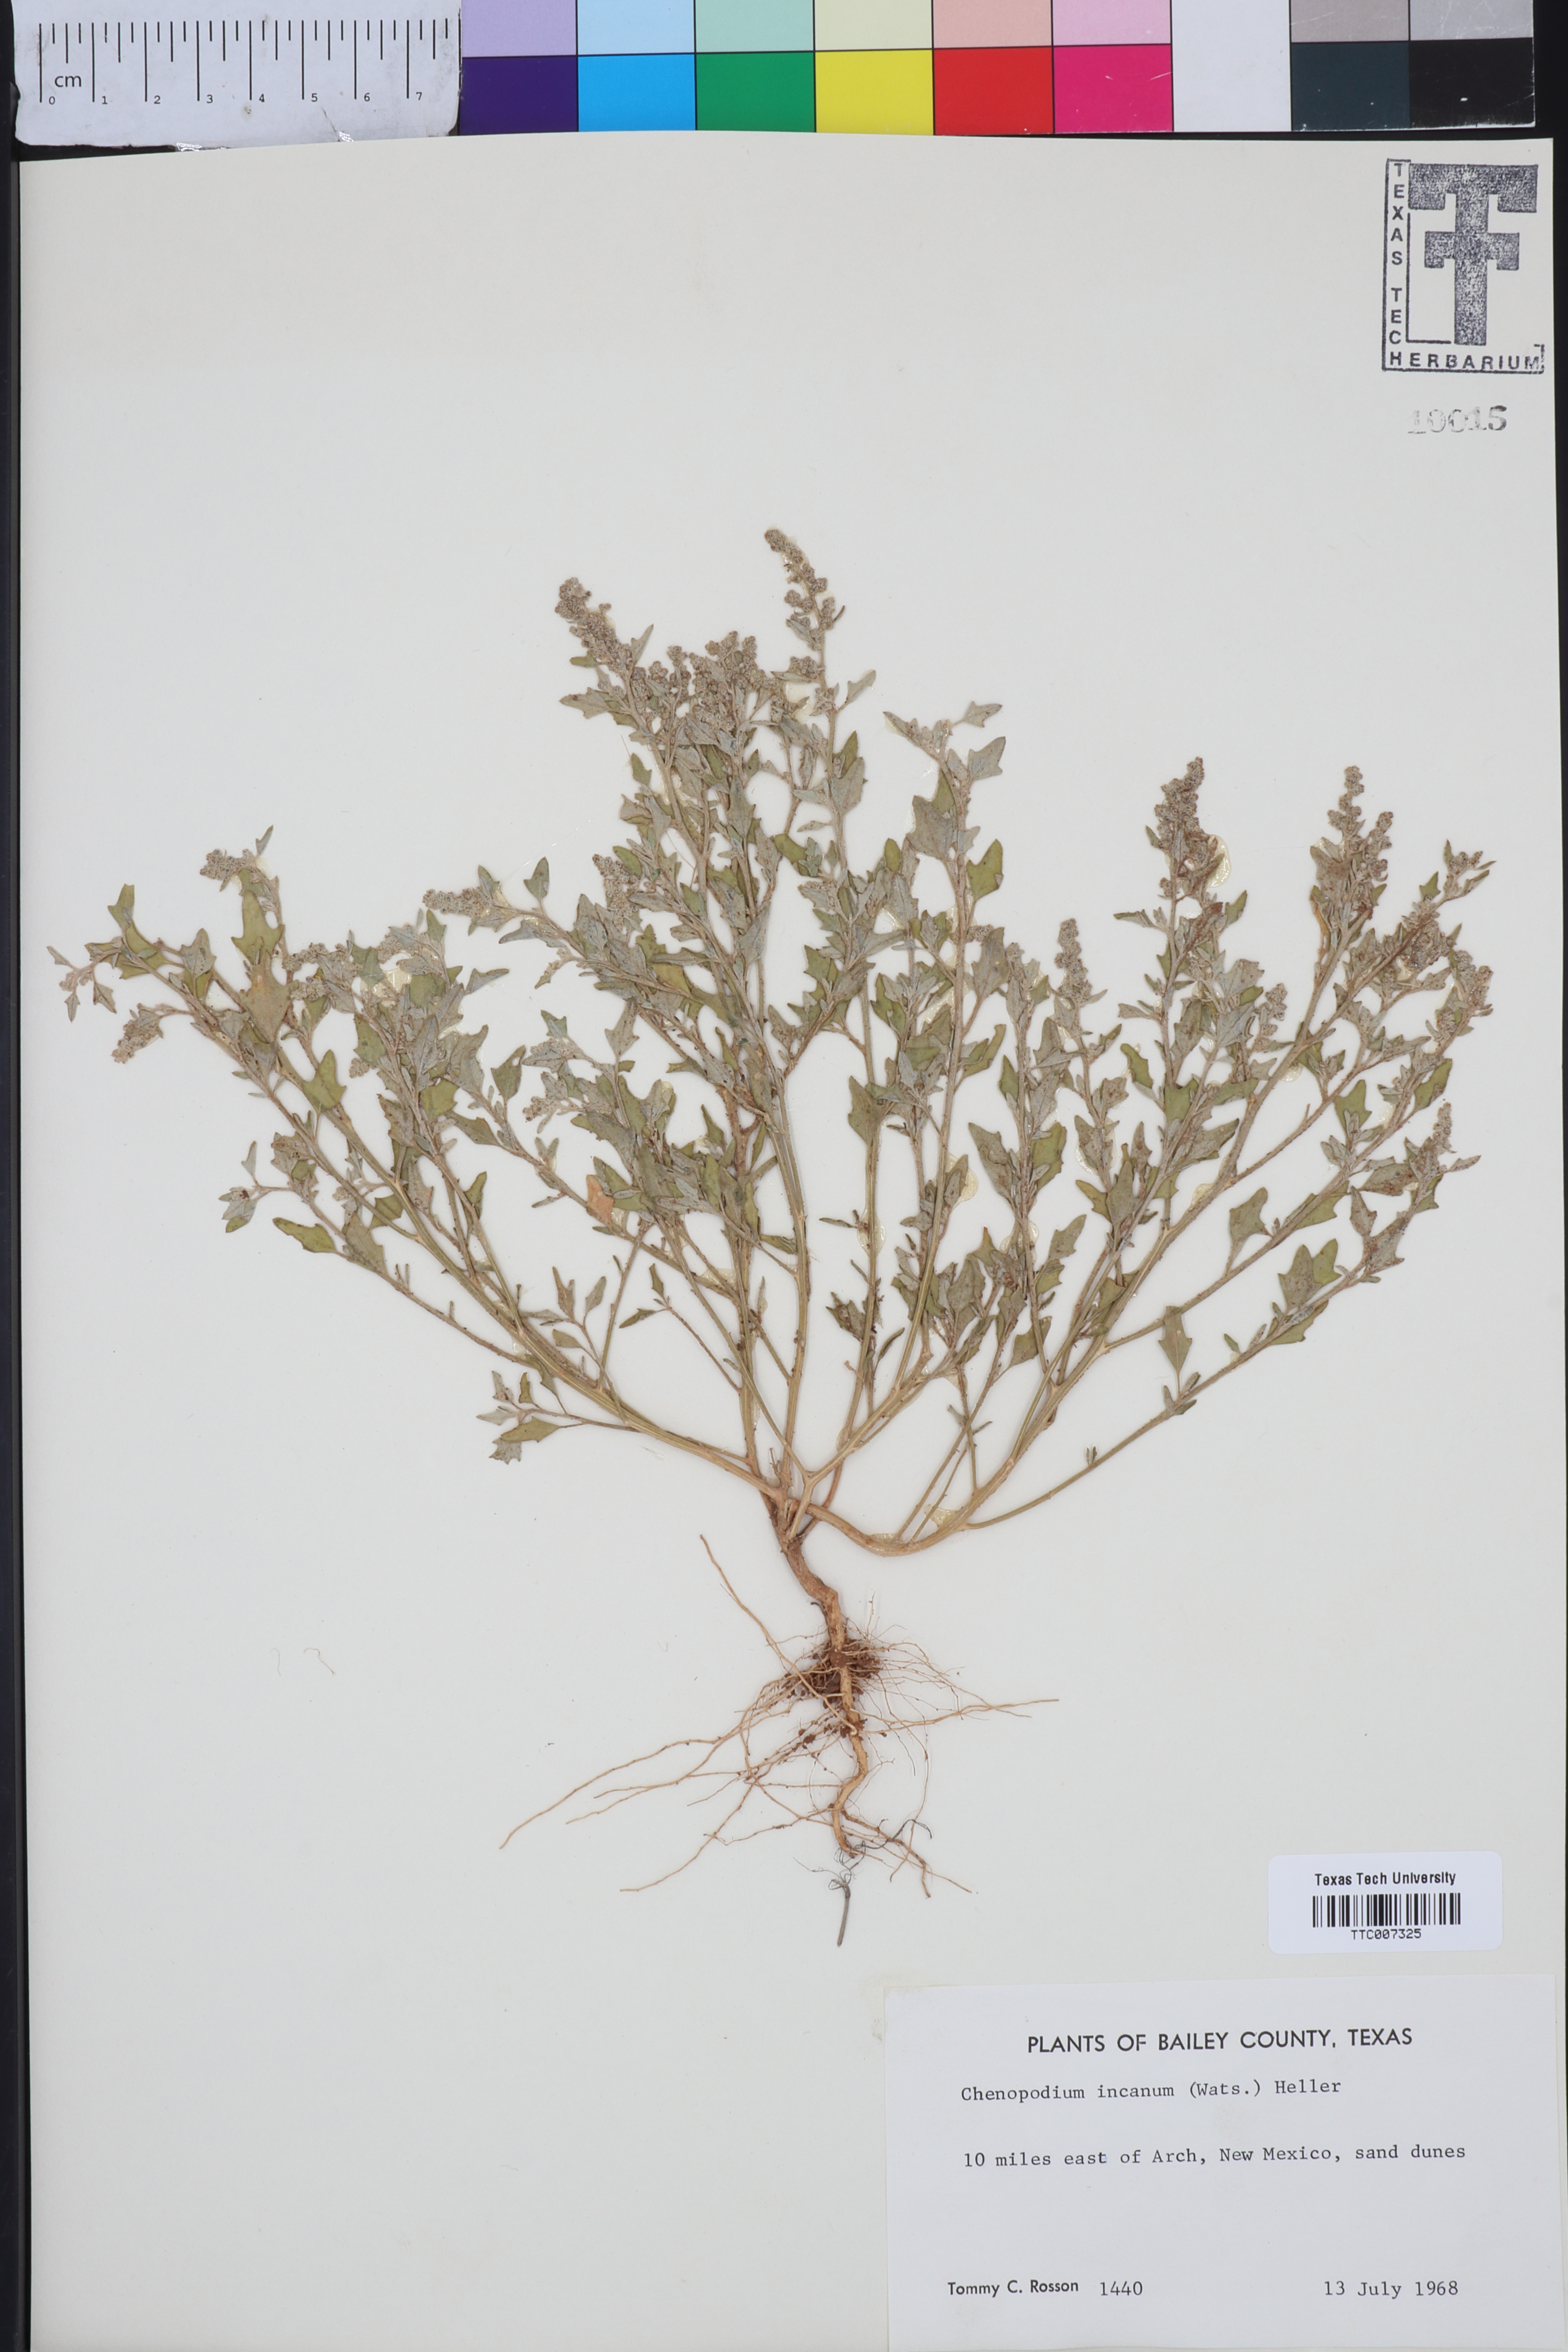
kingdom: Plantae
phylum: Tracheophyta
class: Magnoliopsida
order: Caryophyllales
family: Amaranthaceae
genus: Chenopodium
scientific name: Chenopodium incanum
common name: Hoary goosefoot
